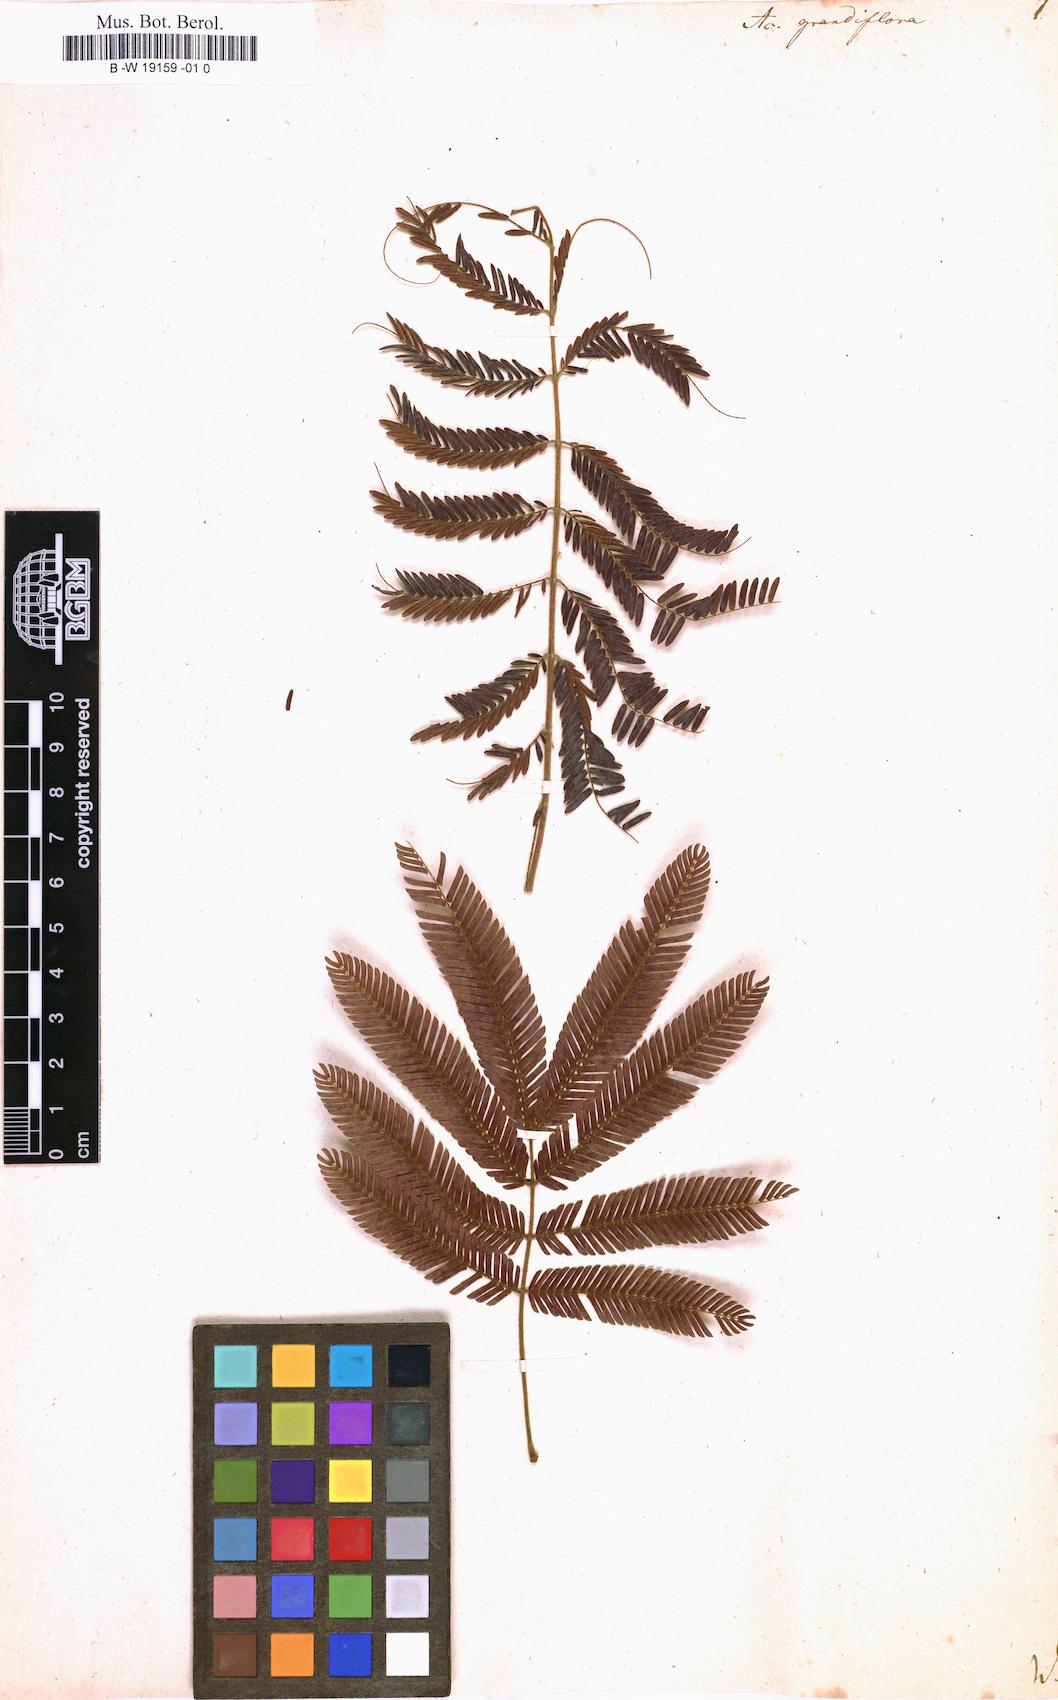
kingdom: Plantae
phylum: Tracheophyta
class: Magnoliopsida
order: Fabales
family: Fabaceae
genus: Calliandra
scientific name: Calliandra houstoniana
